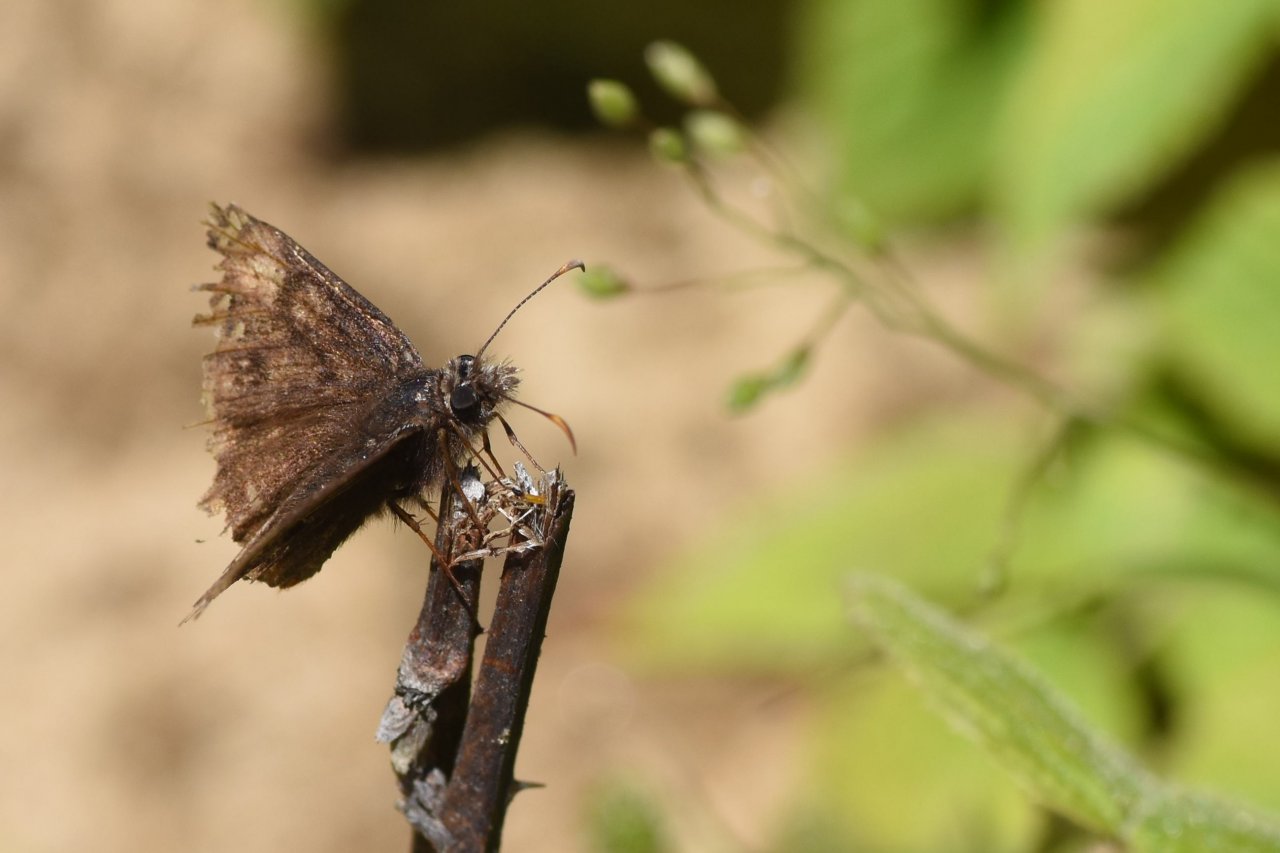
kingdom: Animalia
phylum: Arthropoda
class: Insecta
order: Lepidoptera
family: Hesperiidae
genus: Gesta
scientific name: Gesta
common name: Juvenal's Duskywing
